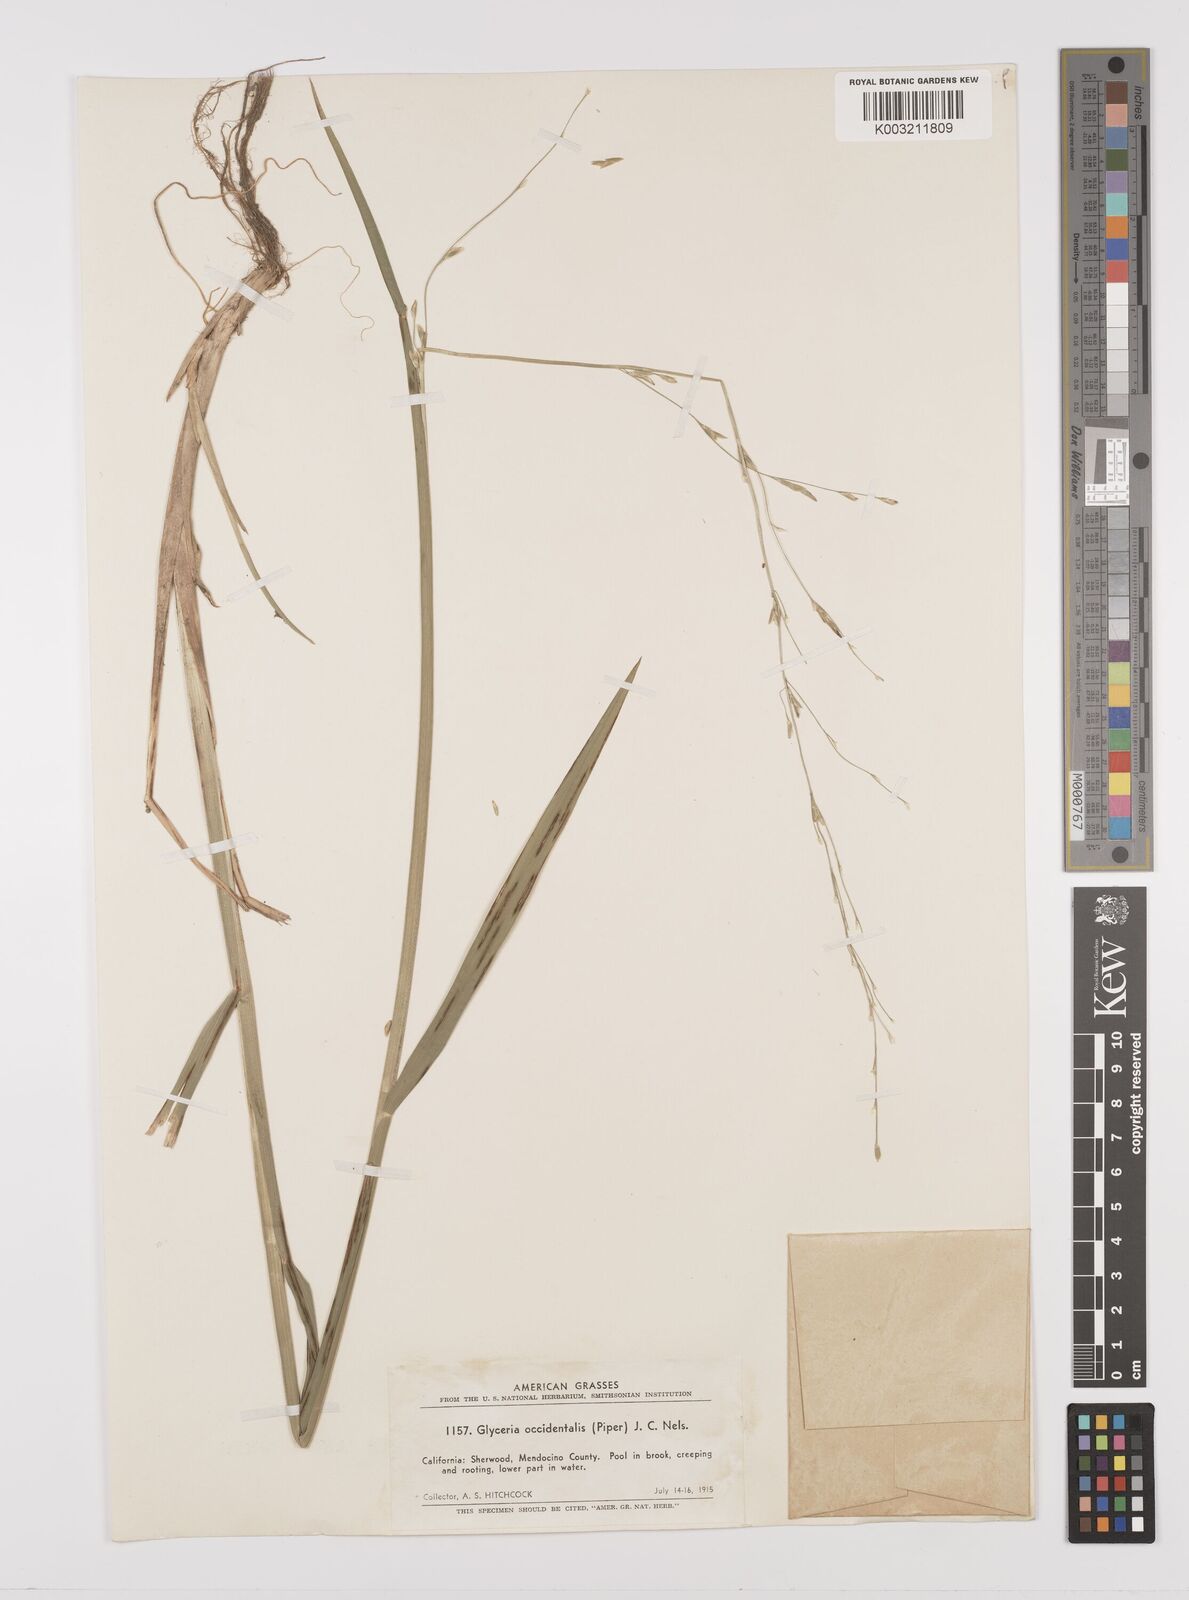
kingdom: Plantae
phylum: Tracheophyta
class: Liliopsida
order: Poales
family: Poaceae
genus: Glyceria
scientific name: Glyceria occidentalis
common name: Western manna grass
